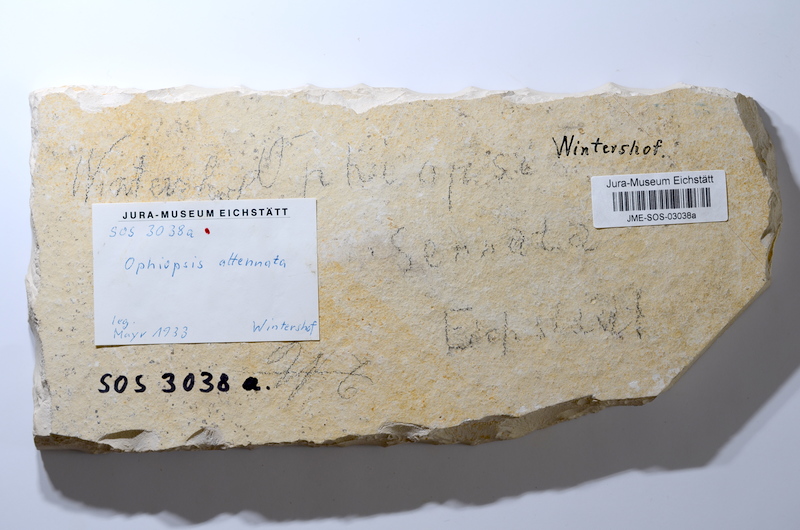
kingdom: Animalia
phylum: Chordata
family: Ophiopsiellidae
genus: Ophiopsiella
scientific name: Ophiopsiella attenuata
